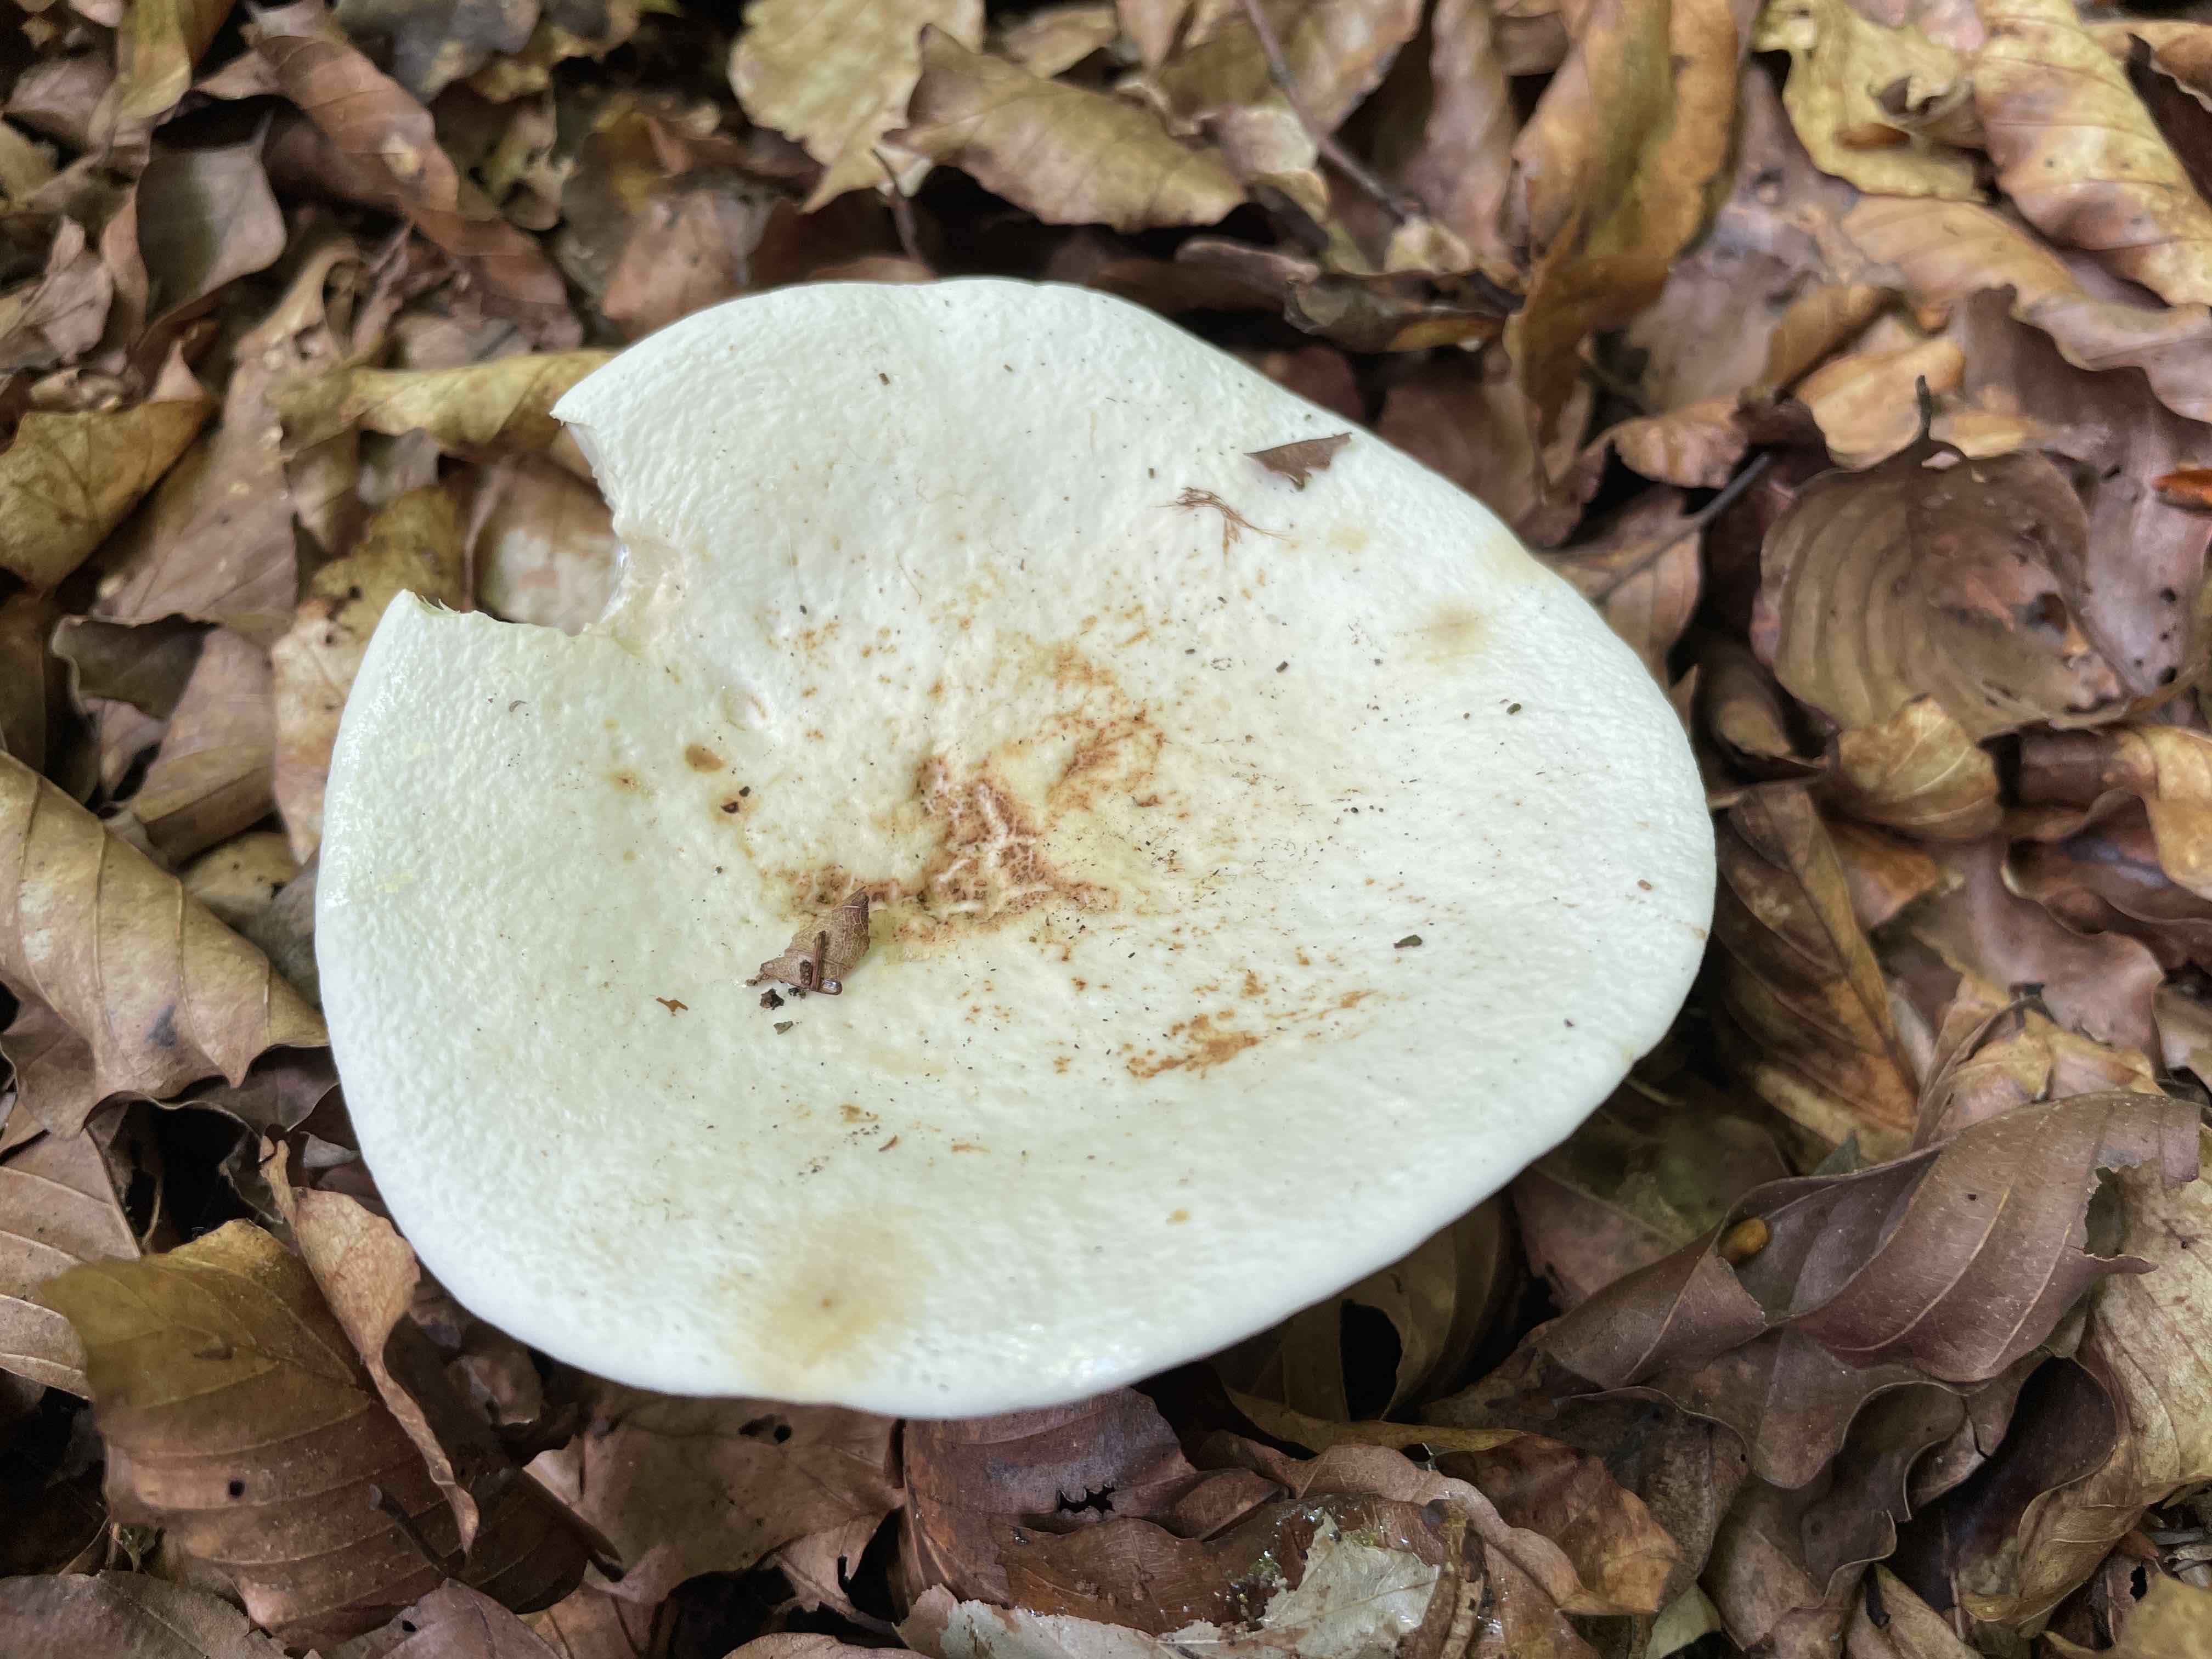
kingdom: Fungi
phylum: Basidiomycota
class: Agaricomycetes
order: Russulales
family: Russulaceae
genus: Lactifluus
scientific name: Lactifluus
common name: mælkehat
